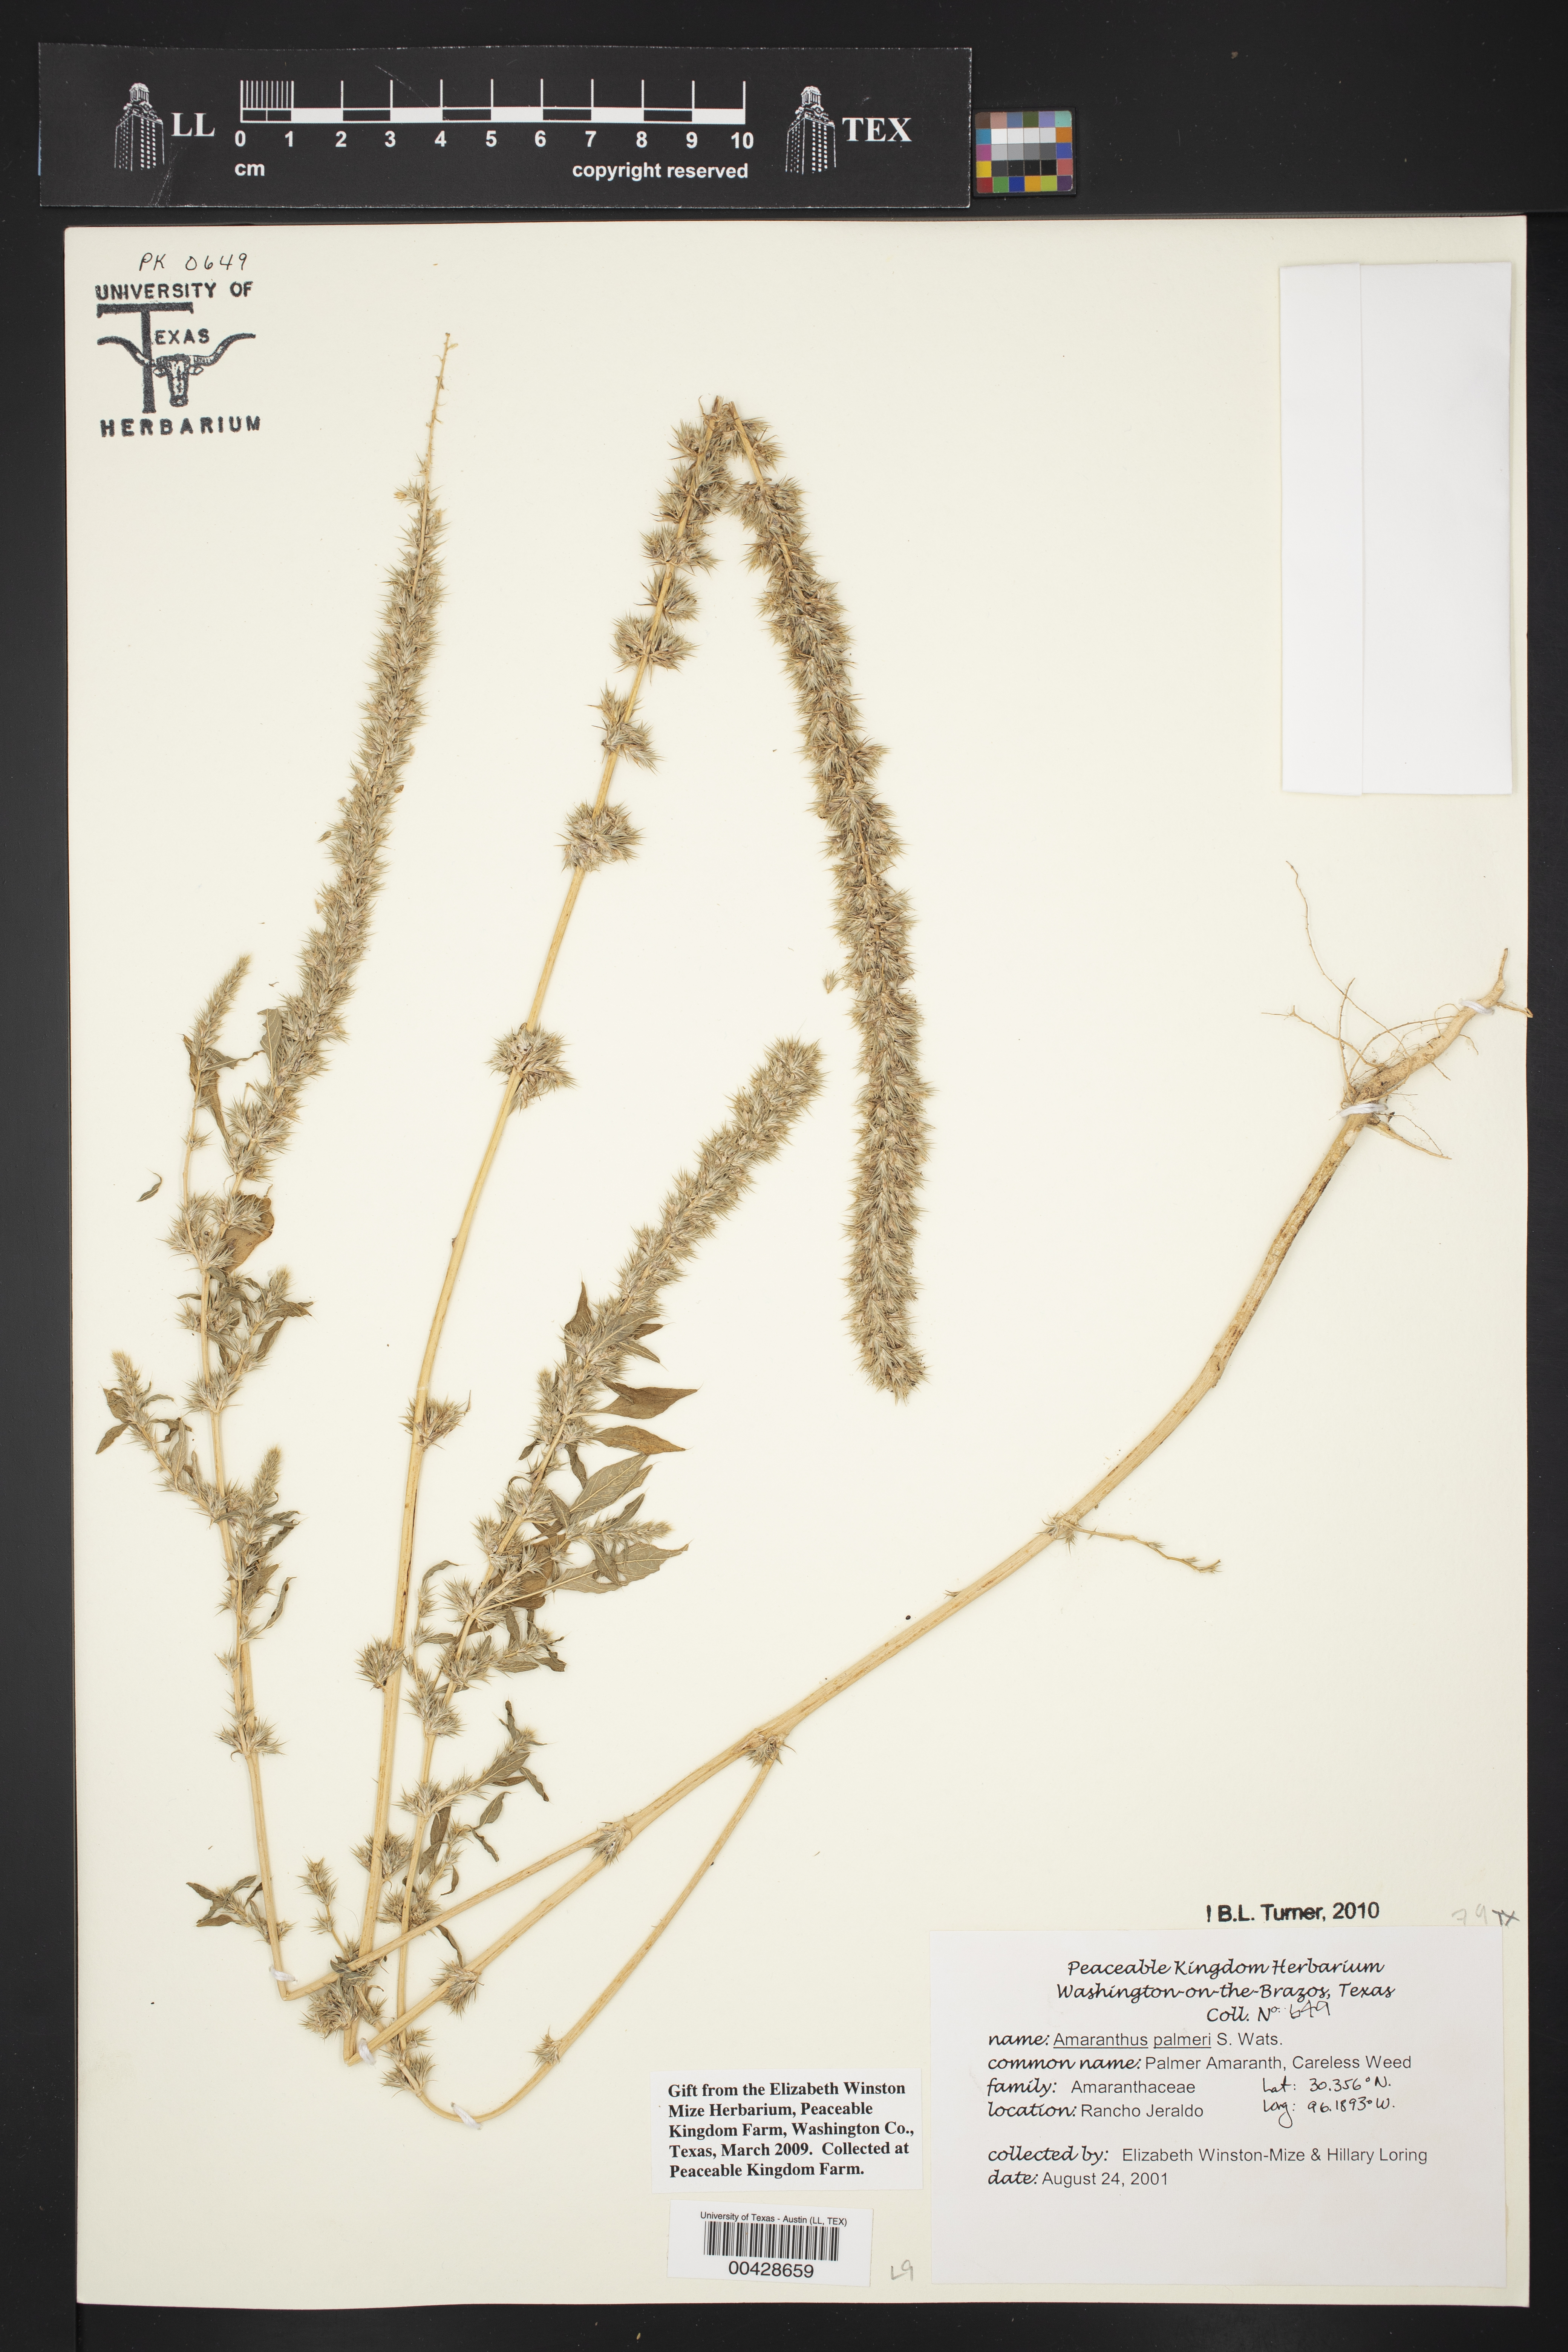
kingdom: Plantae
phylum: Tracheophyta
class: Magnoliopsida
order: Caryophyllales
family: Amaranthaceae
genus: Amaranthus
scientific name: Amaranthus palmeri
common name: Dioecious amaranth
